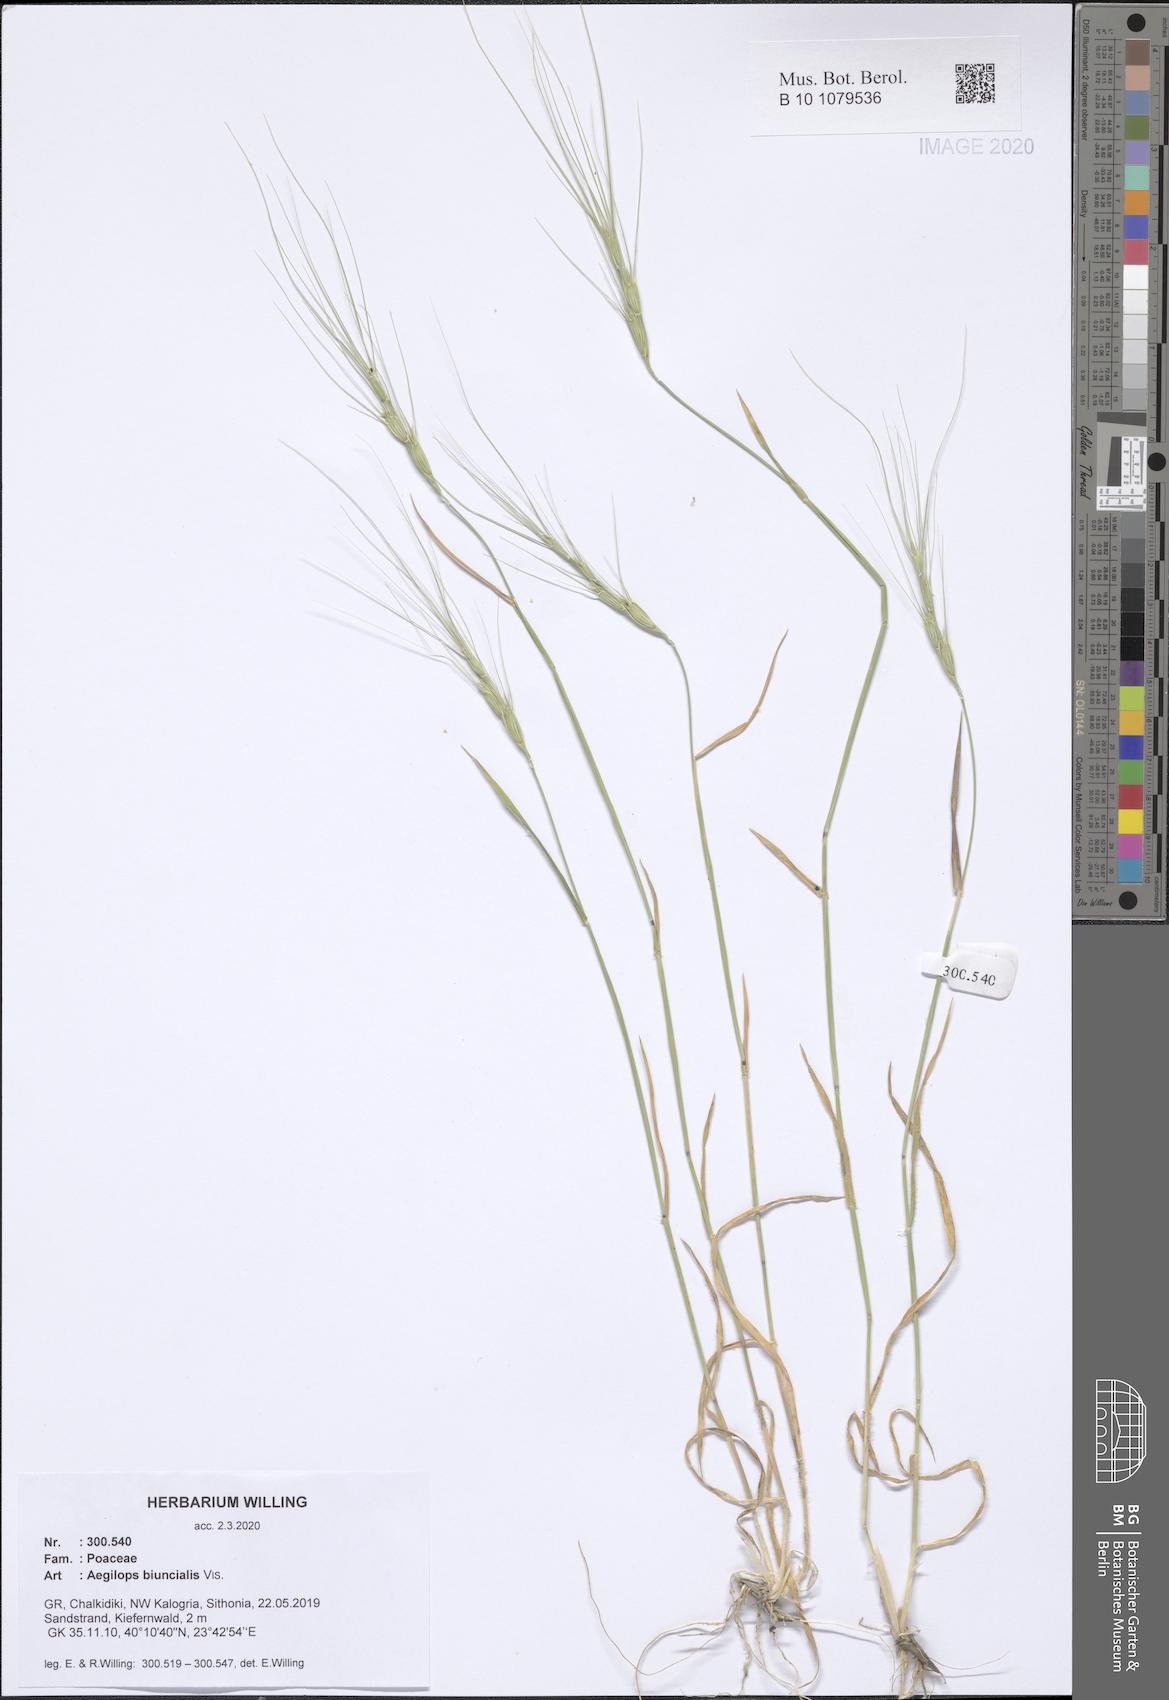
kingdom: Plantae
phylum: Tracheophyta
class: Liliopsida
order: Poales
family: Poaceae
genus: Aegilops
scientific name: Aegilops biuncialis
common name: Mediterranean aegilops
